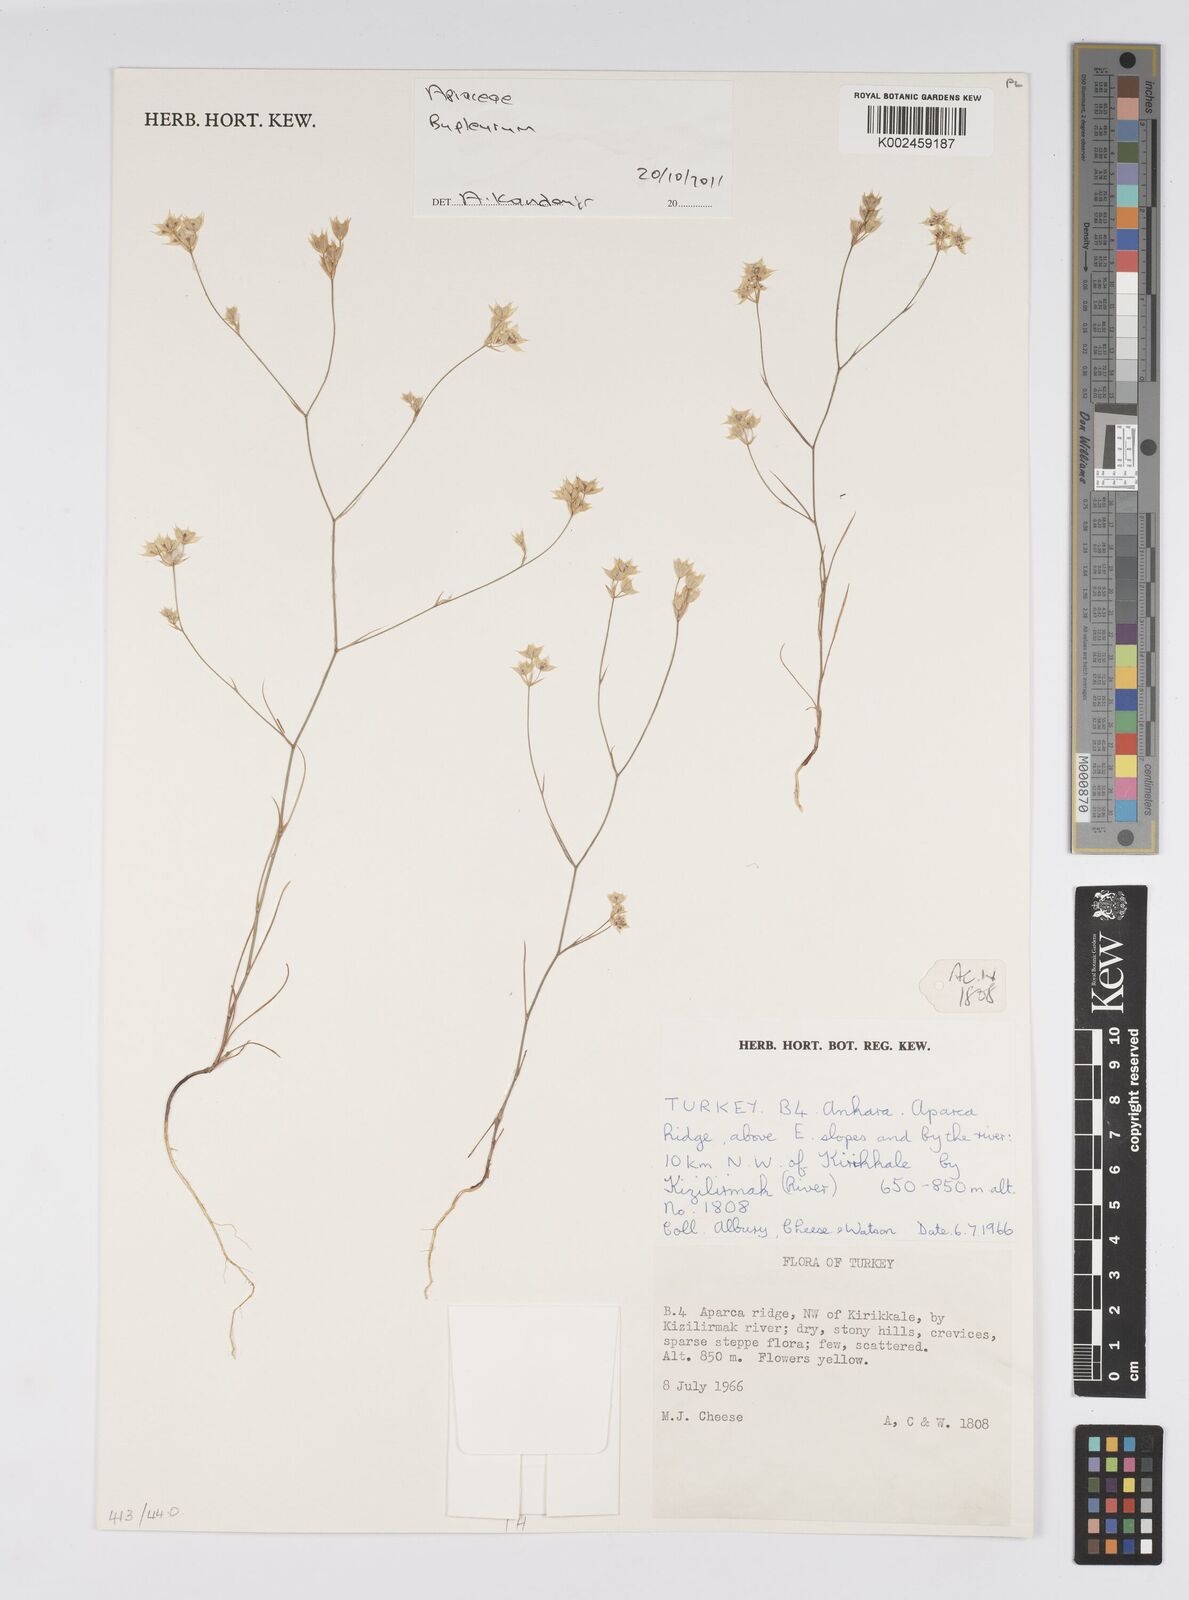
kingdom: Plantae
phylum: Tracheophyta
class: Magnoliopsida
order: Apiales
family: Apiaceae
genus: Bupleurum
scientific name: Bupleurum
